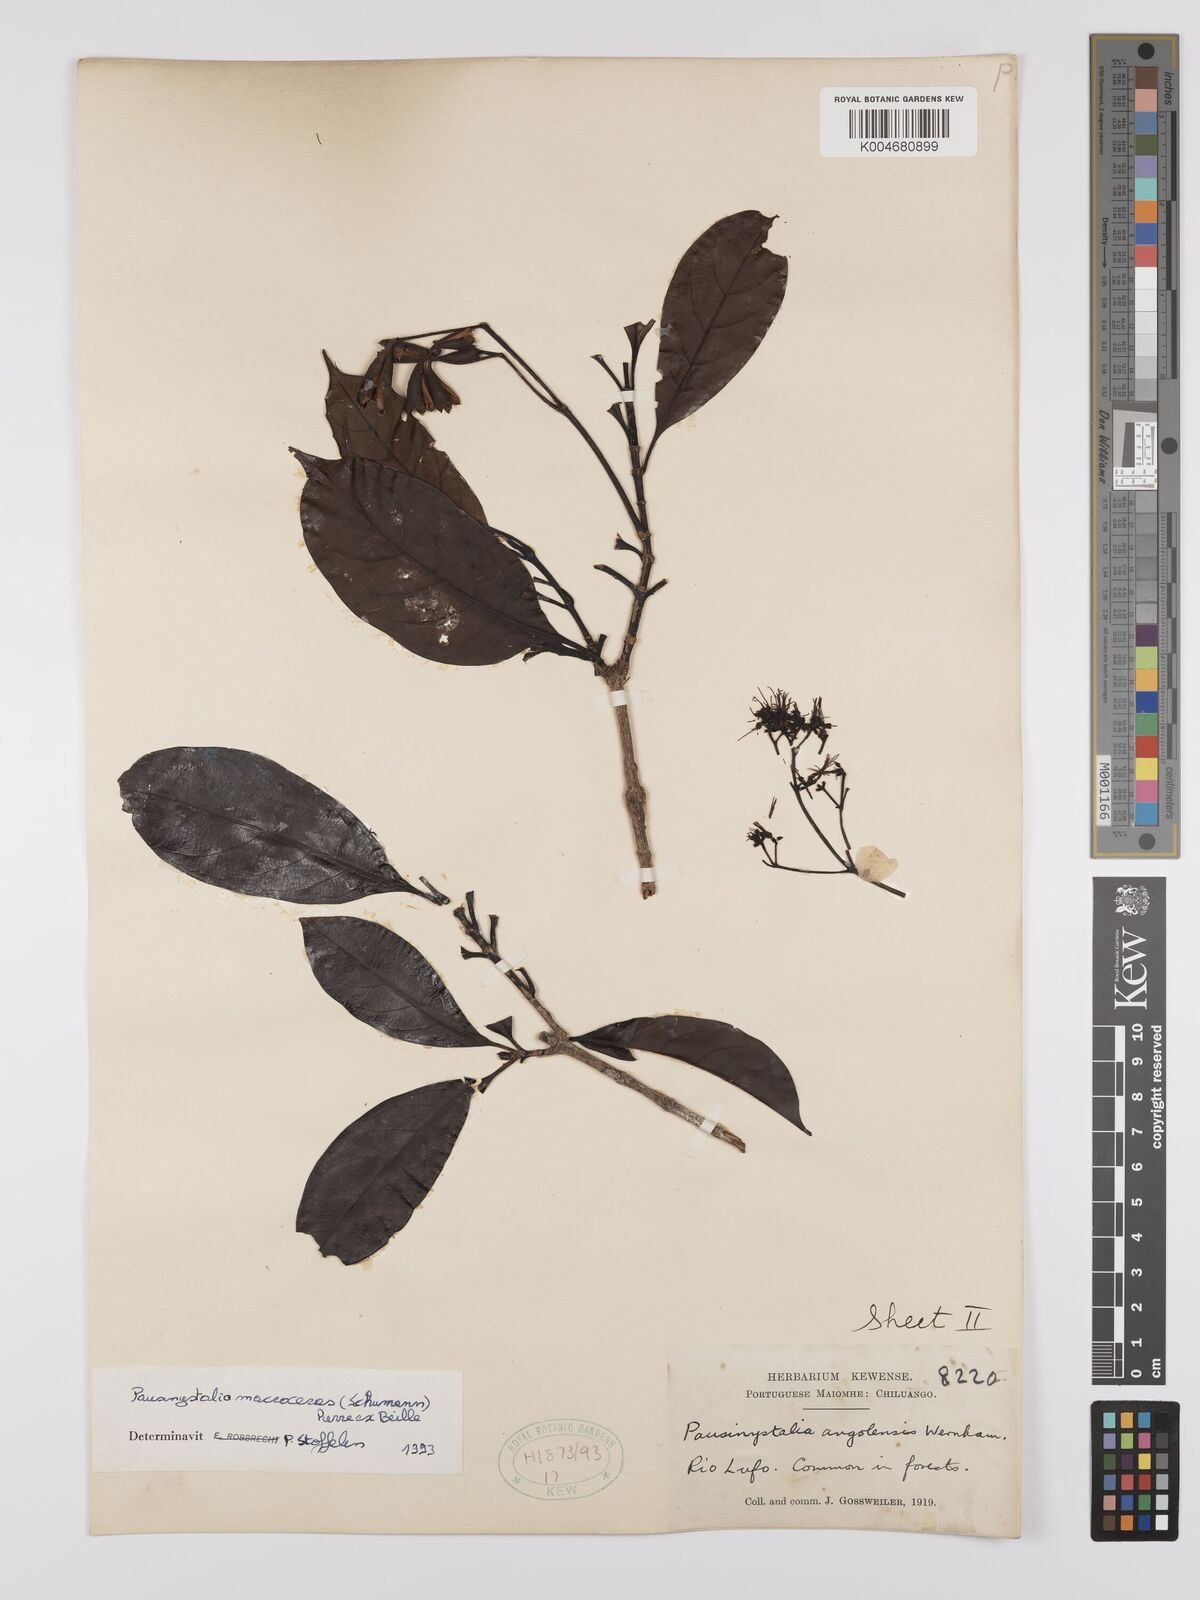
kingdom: Plantae
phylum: Tracheophyta
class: Magnoliopsida
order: Gentianales
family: Rubiaceae
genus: Corynanthe
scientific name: Corynanthe macroceras
